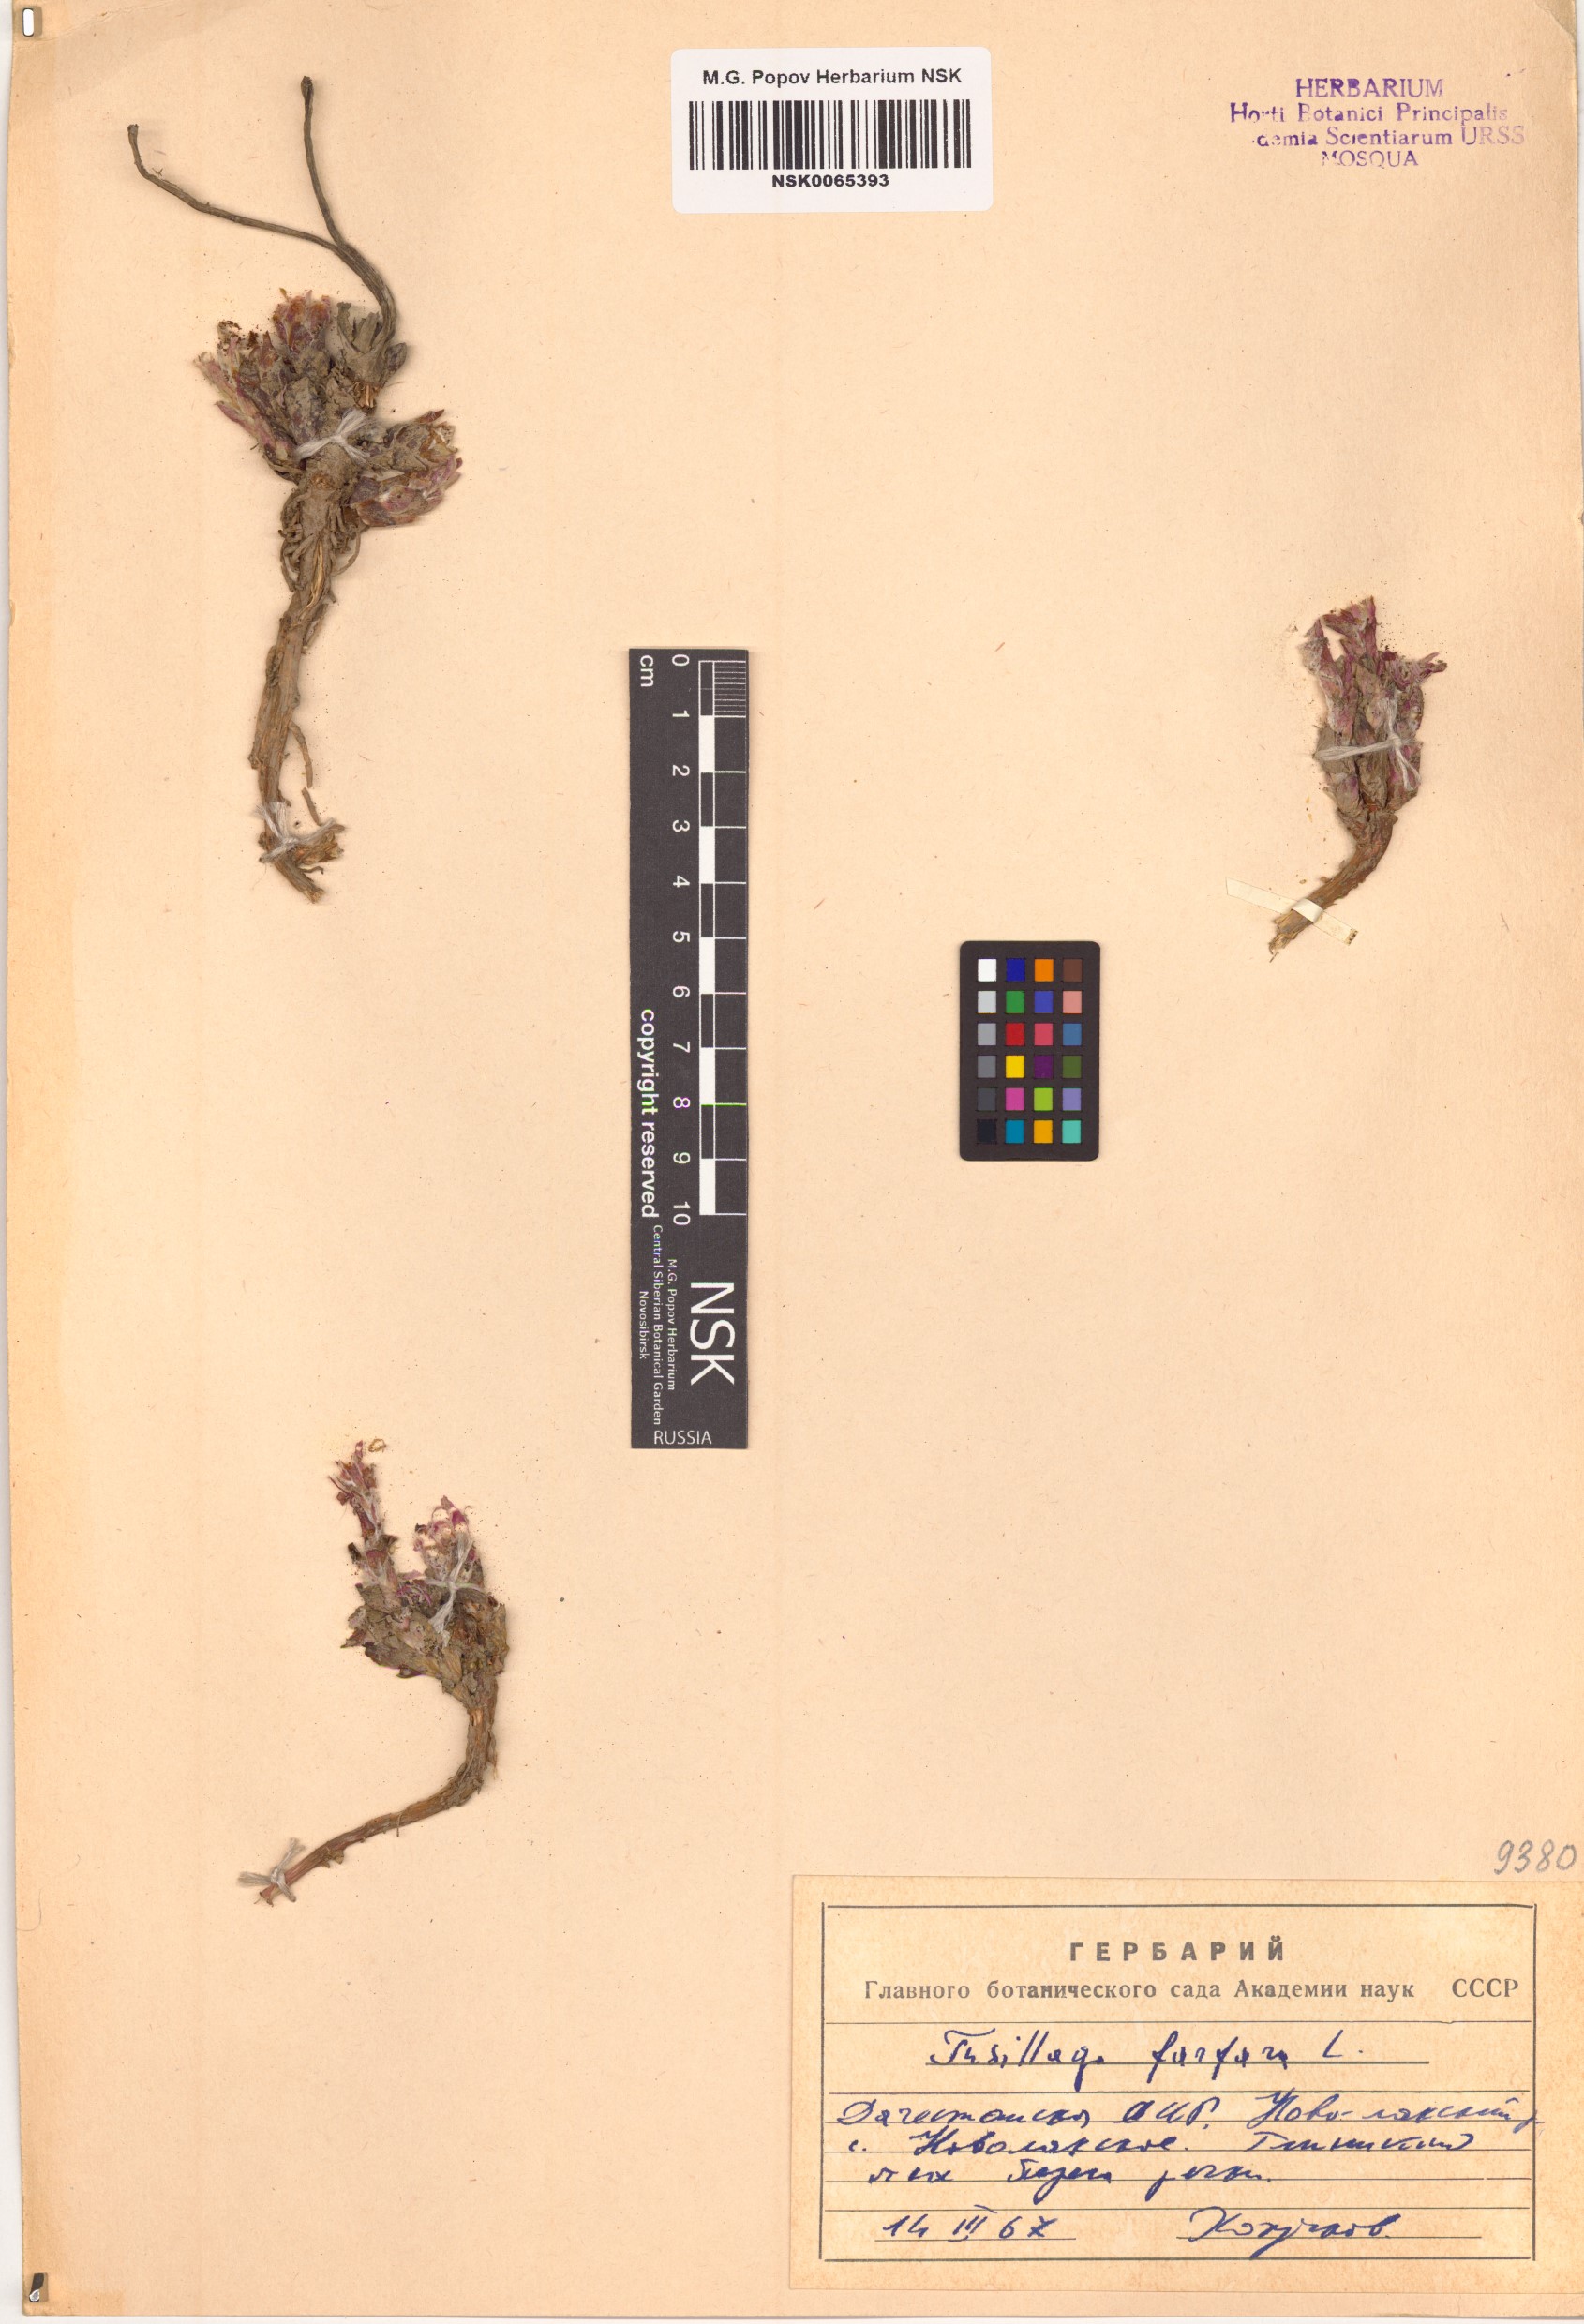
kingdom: Plantae
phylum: Tracheophyta
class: Magnoliopsida
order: Asterales
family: Asteraceae
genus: Tussilago
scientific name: Tussilago farfara
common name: Coltsfoot
